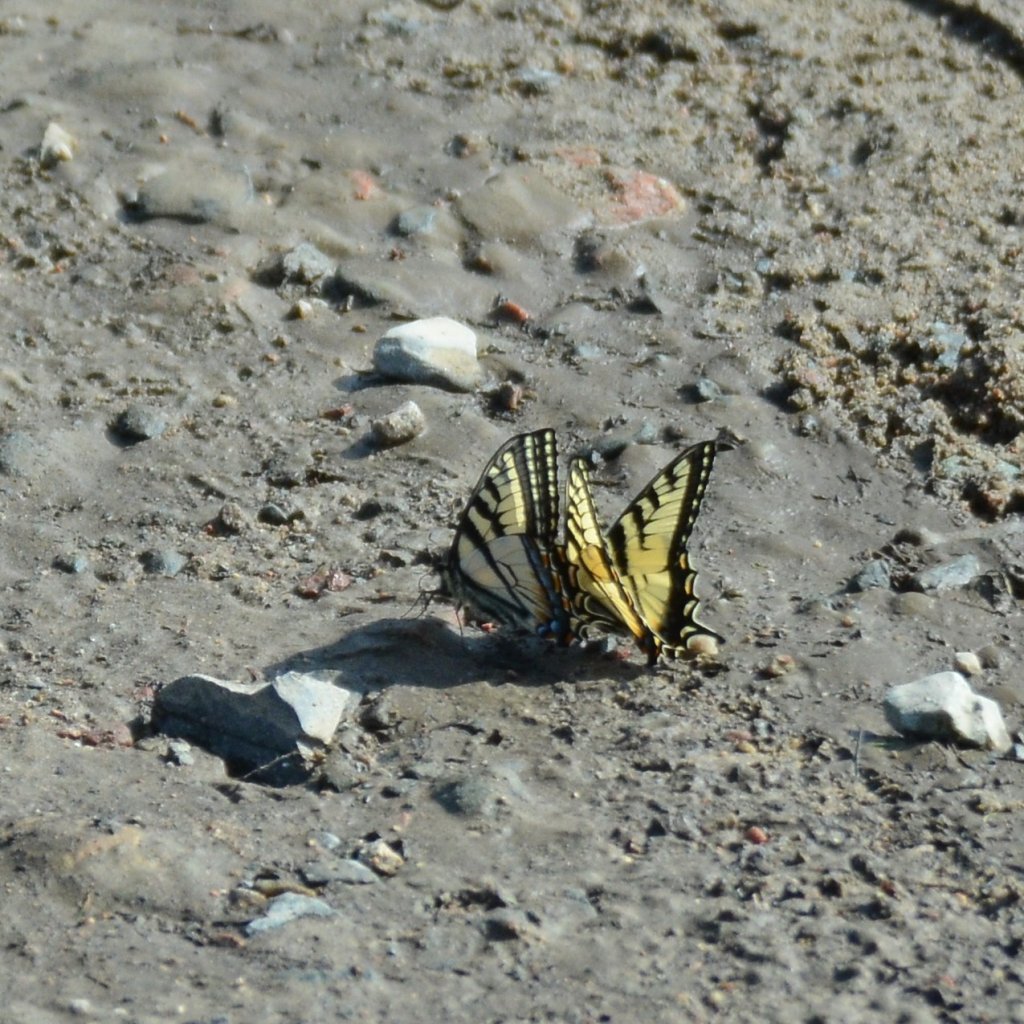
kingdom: Animalia
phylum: Arthropoda
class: Insecta
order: Lepidoptera
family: Papilionidae
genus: Pterourus
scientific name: Pterourus canadensis
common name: Canadian Tiger Swallowtail
